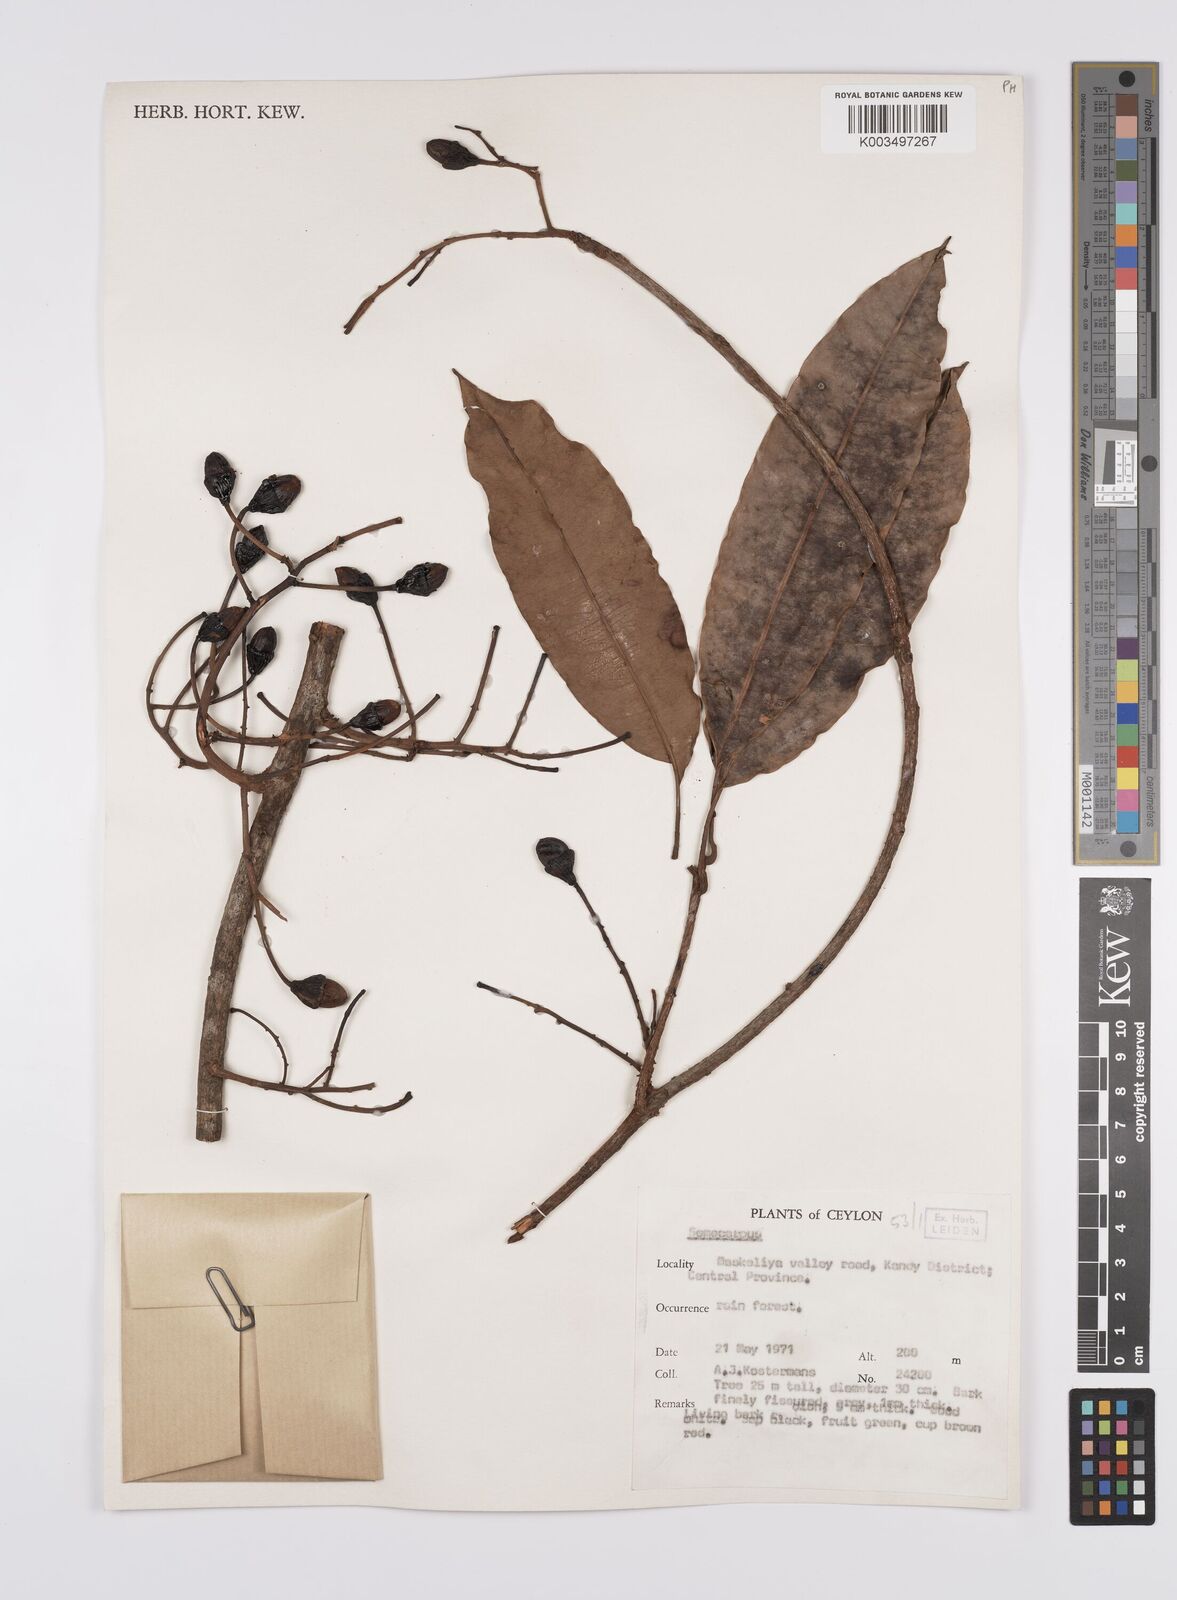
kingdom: Plantae
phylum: Tracheophyta
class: Magnoliopsida
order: Sapindales
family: Anacardiaceae
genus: Semecarpus
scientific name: Semecarpus
